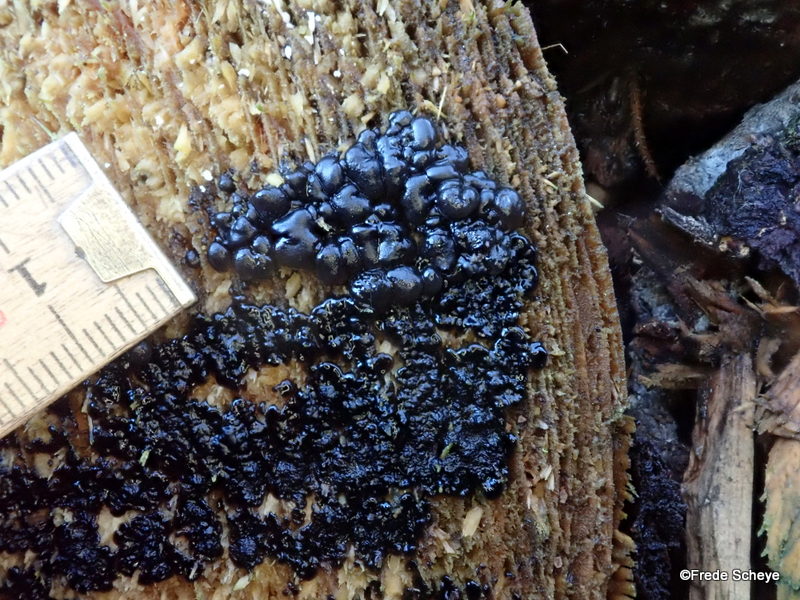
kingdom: Fungi
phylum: Basidiomycota
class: Agaricomycetes
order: Auriculariales
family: Auriculariaceae
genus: Exidia
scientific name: Exidia nigricans
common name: almindelig bævretop
